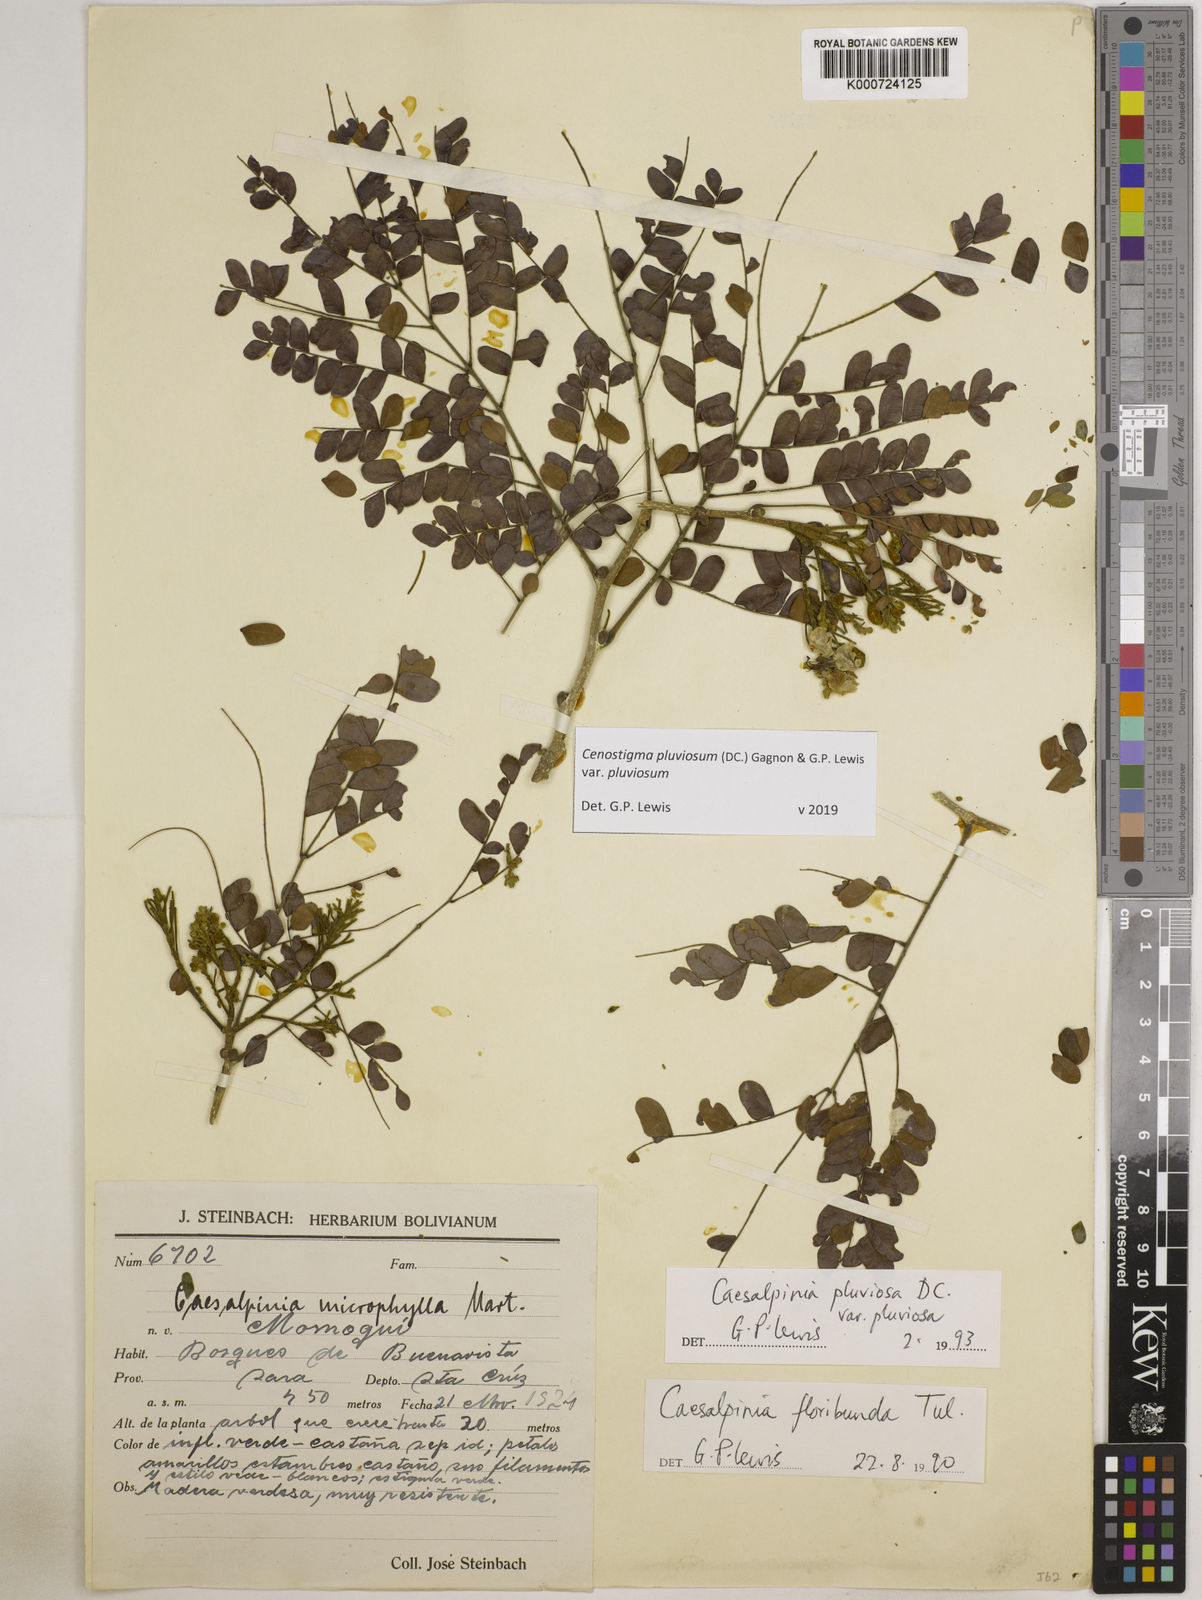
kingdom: Plantae
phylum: Tracheophyta
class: Magnoliopsida
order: Fabales
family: Fabaceae
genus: Cenostigma
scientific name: Cenostigma pluviosum
